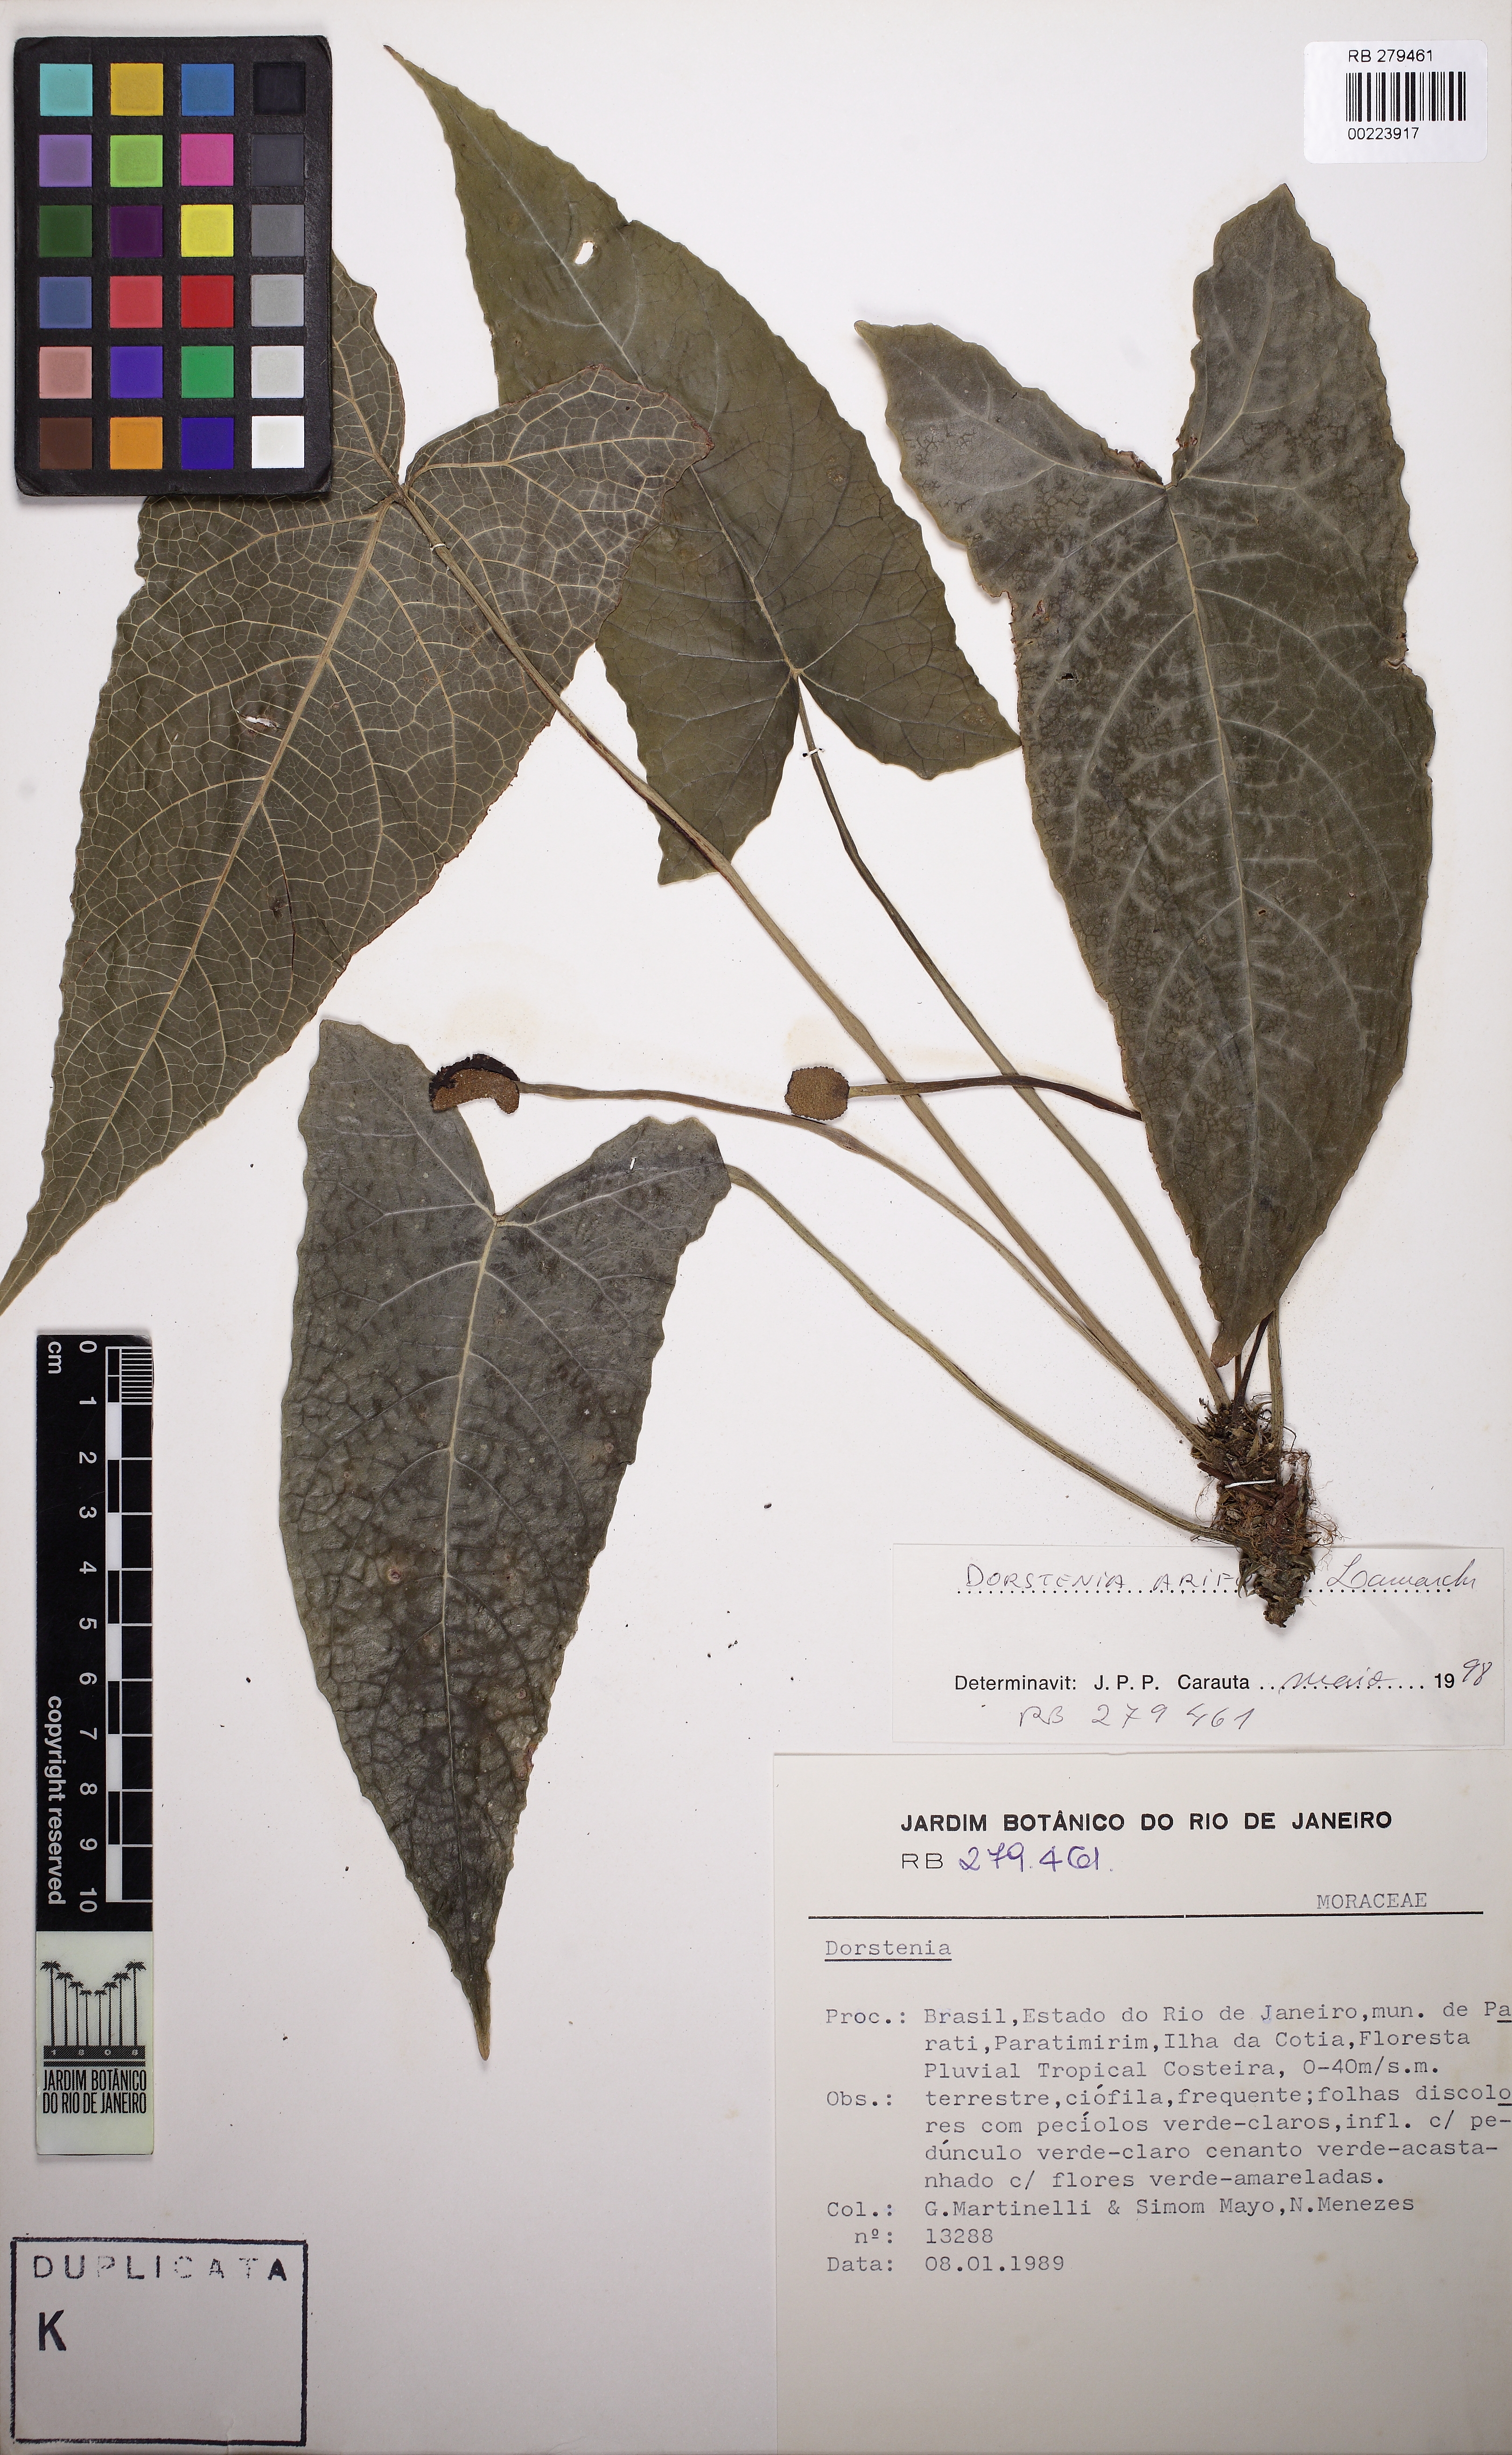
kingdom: Plantae
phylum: Tracheophyta
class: Magnoliopsida
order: Rosales
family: Moraceae
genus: Dorstenia
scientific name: Dorstenia arifolia
